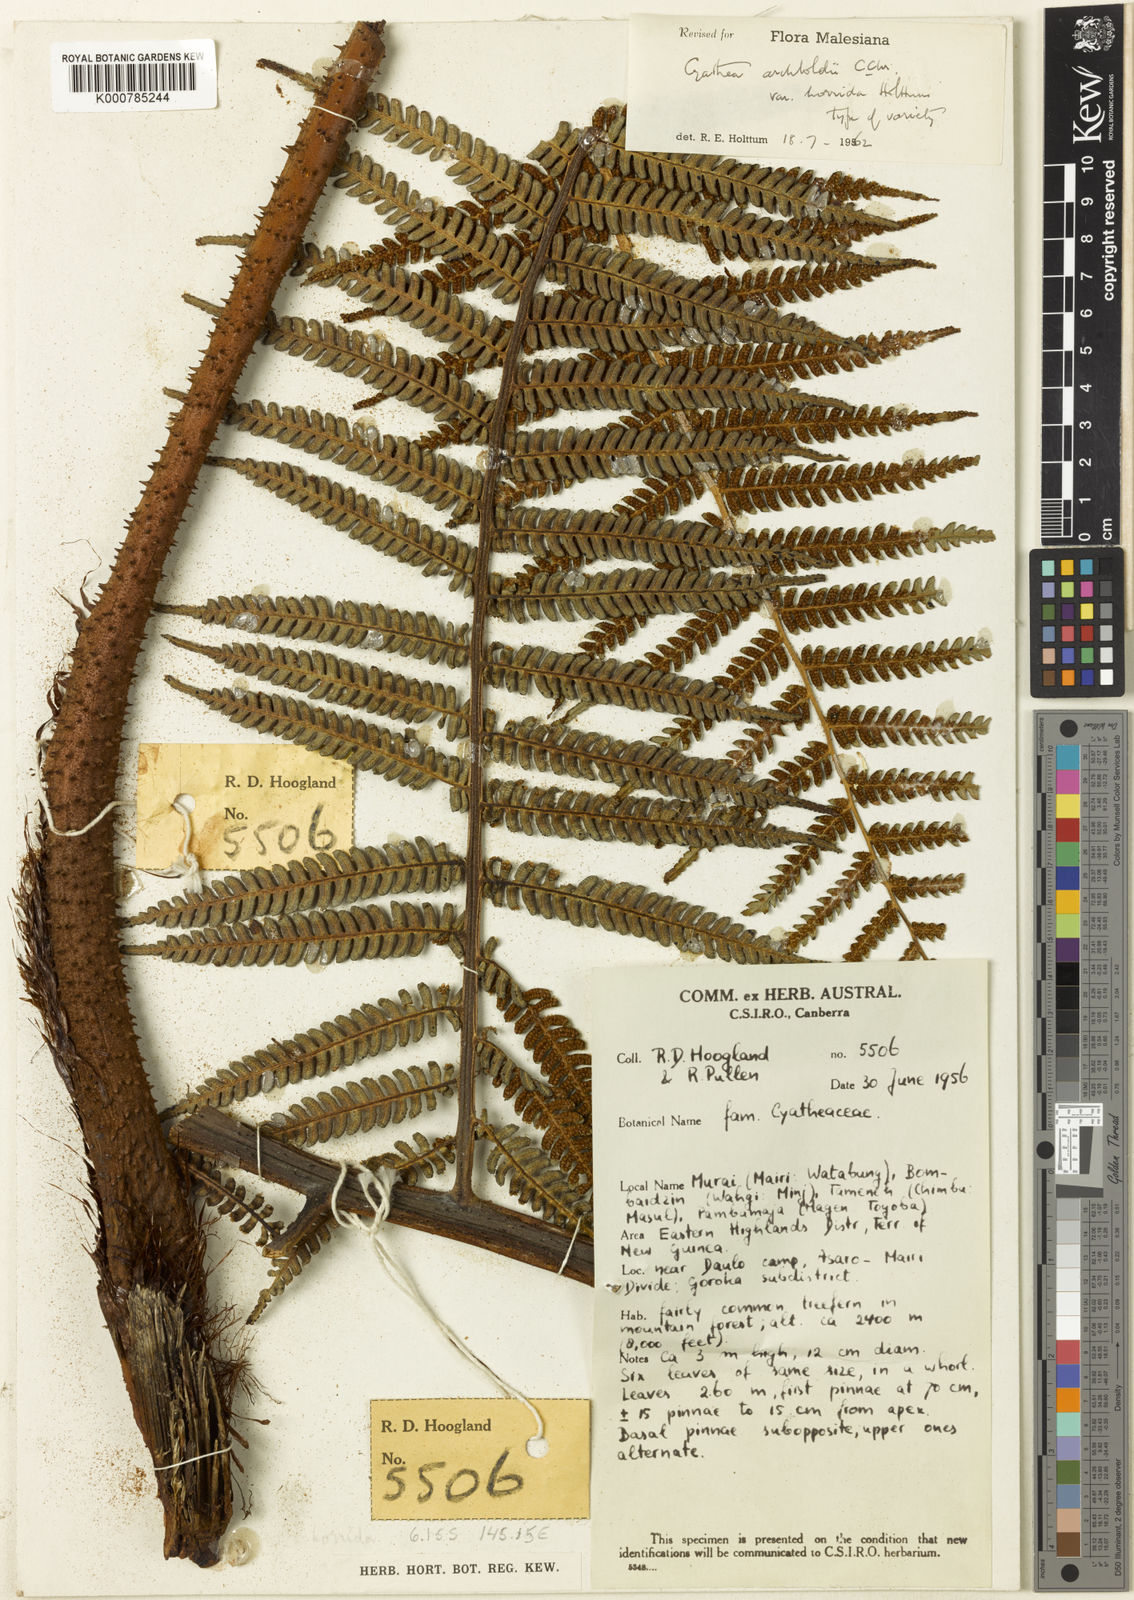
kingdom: Plantae
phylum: Tracheophyta
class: Polypodiopsida
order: Cyatheales
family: Cyatheaceae
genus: Alsophila
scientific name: Alsophila archboldii
